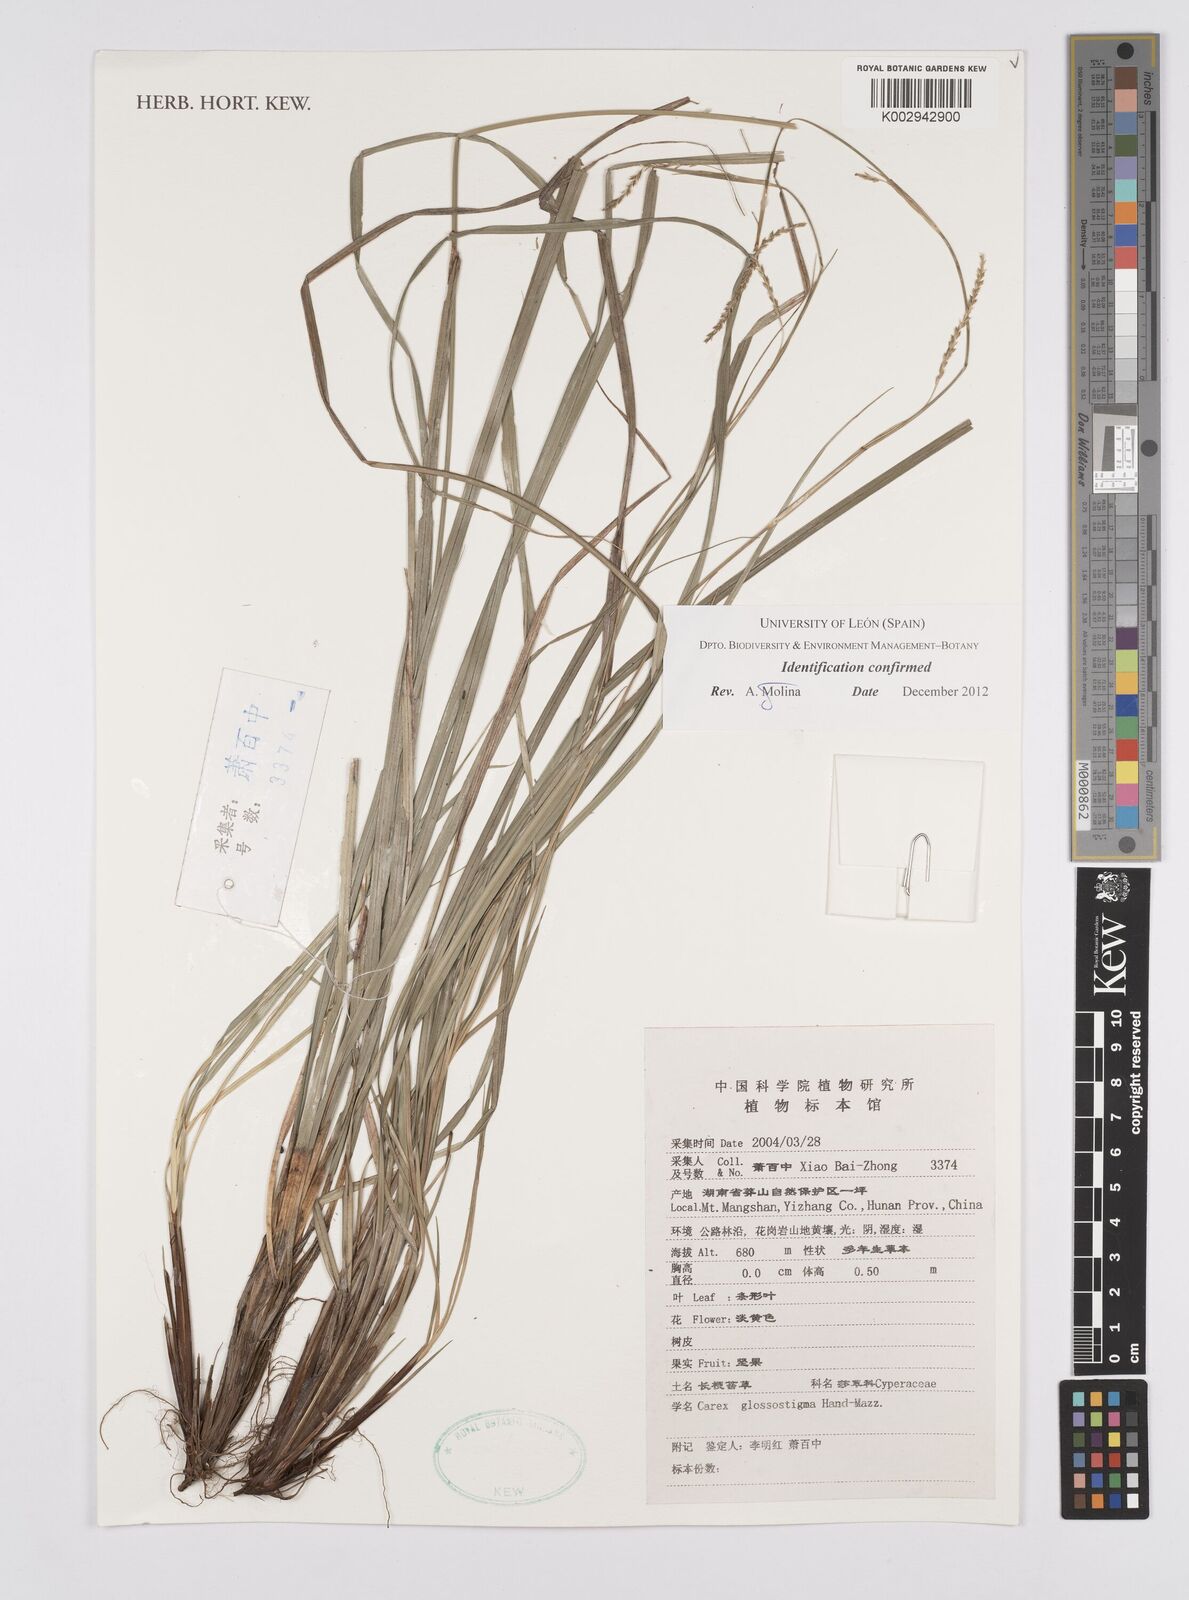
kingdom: Plantae
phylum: Tracheophyta
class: Liliopsida
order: Poales
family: Cyperaceae
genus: Carex
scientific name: Carex glossostigma
